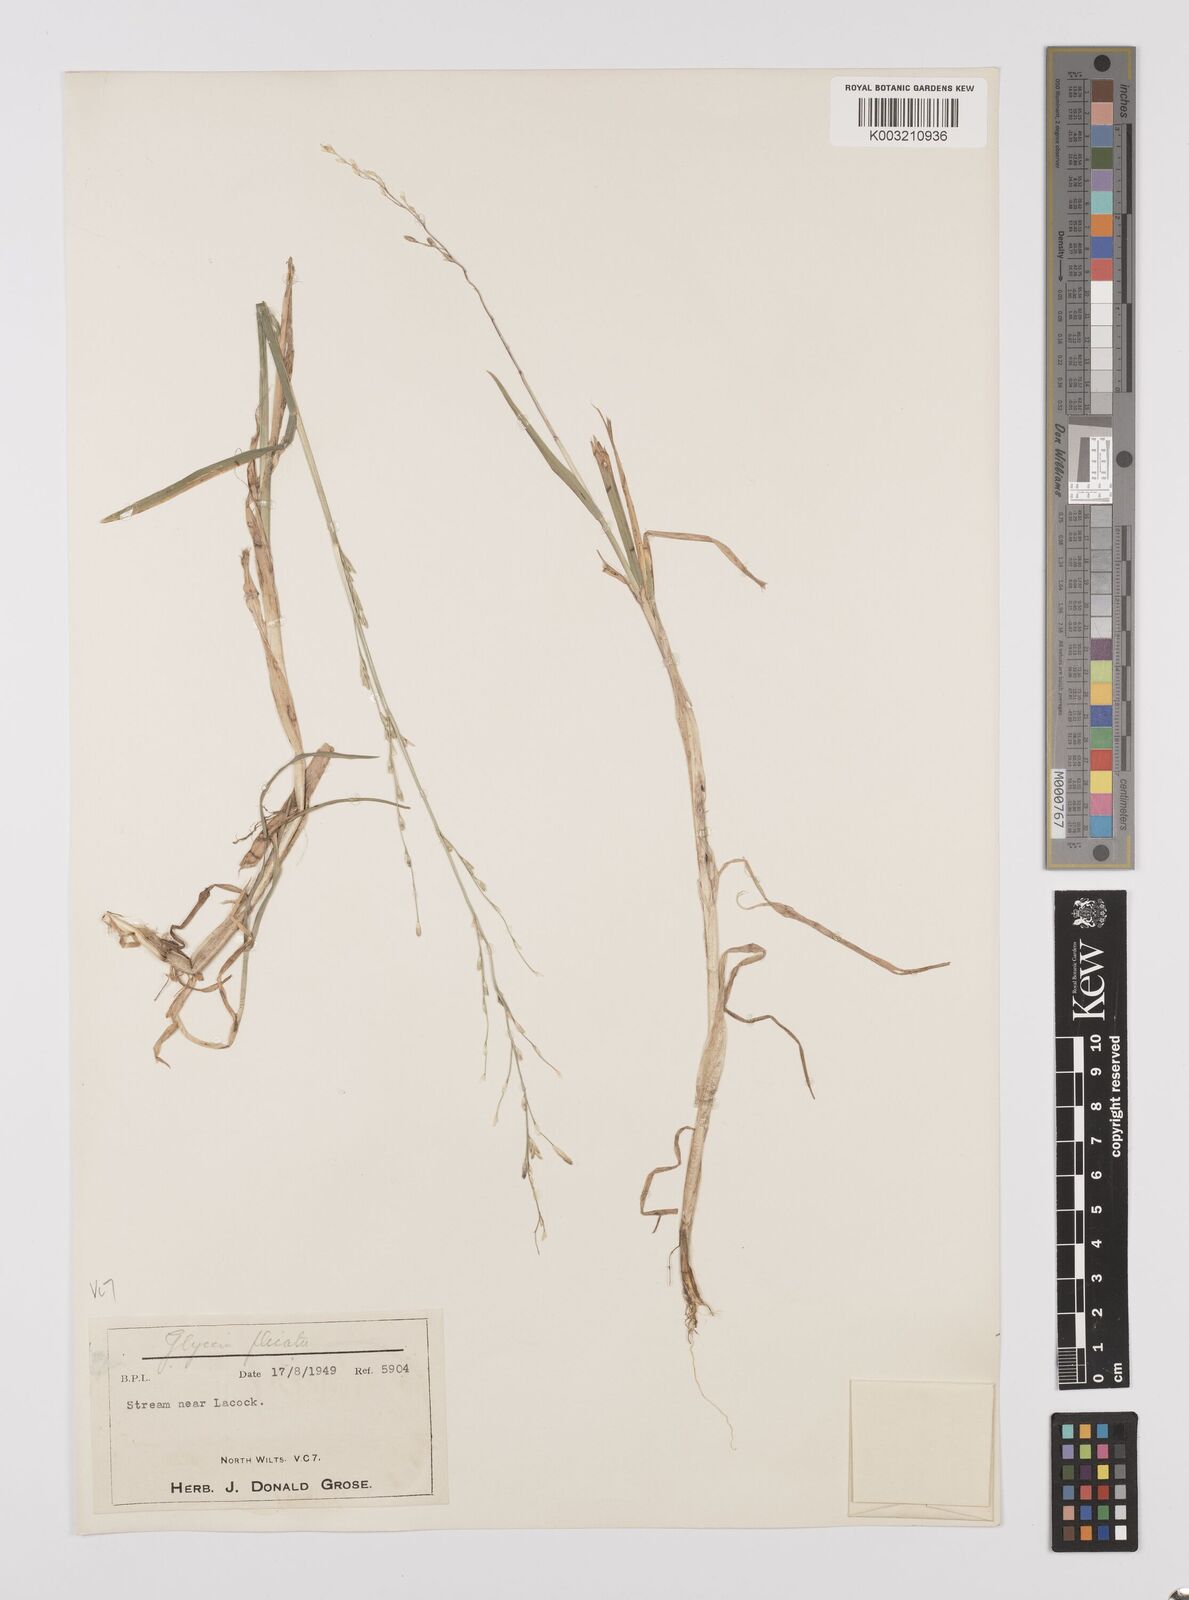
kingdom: Plantae
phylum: Tracheophyta
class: Liliopsida
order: Poales
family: Poaceae
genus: Glyceria
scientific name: Glyceria notata
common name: Plicate sweet-grass
